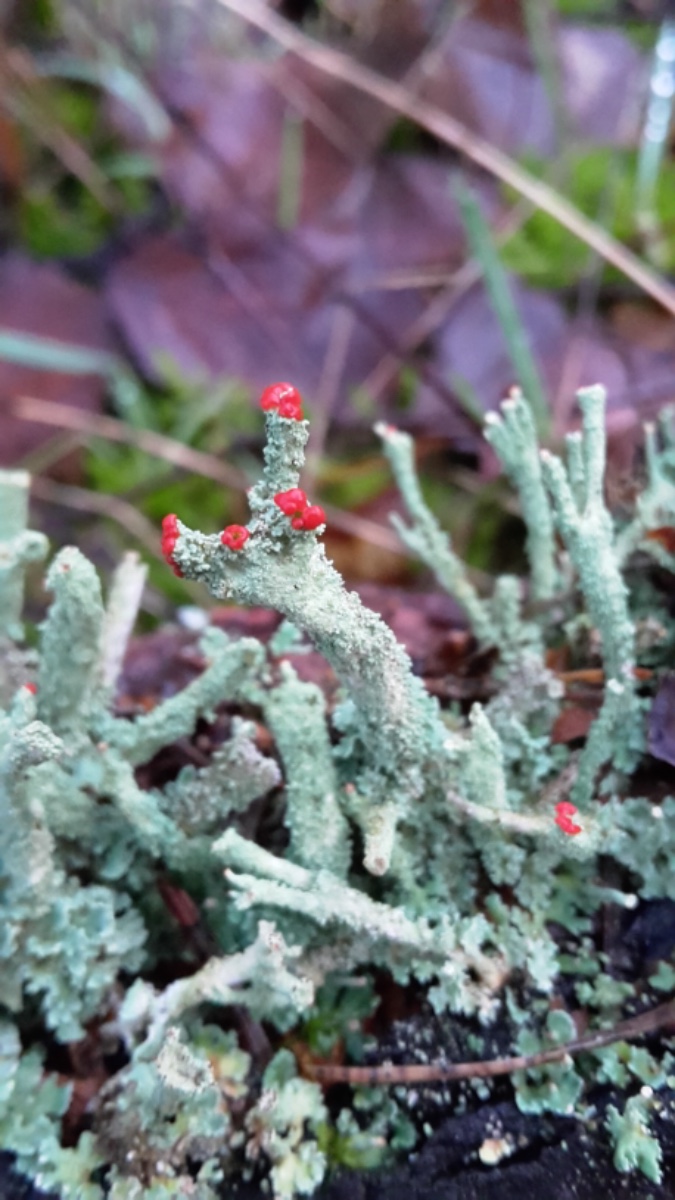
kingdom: Fungi
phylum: Ascomycota
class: Lecanoromycetes
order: Lecanorales
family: Cladoniaceae
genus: Cladonia
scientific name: Cladonia floerkeana
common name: lakrød bægerlav
